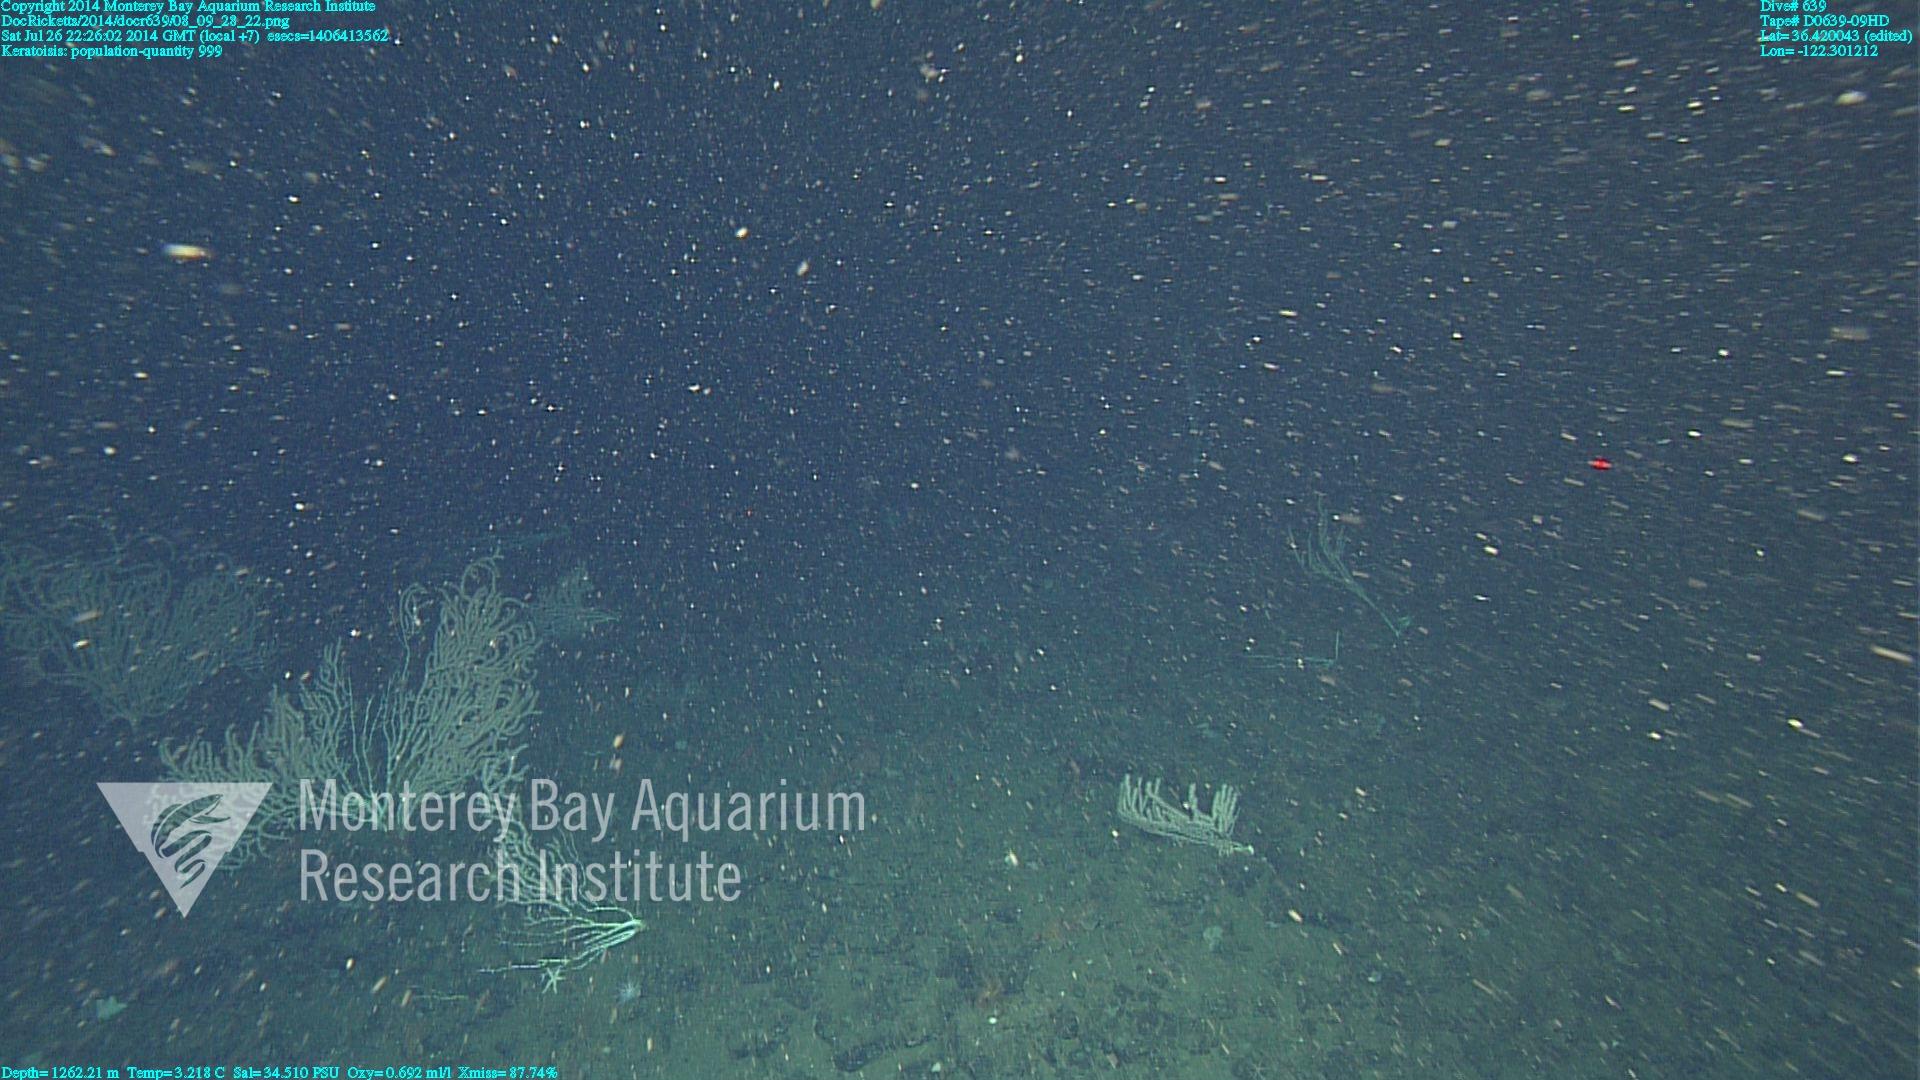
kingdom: Animalia
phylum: Cnidaria
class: Anthozoa
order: Scleralcyonacea
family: Keratoisididae
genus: Keratoisis
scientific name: Keratoisis
